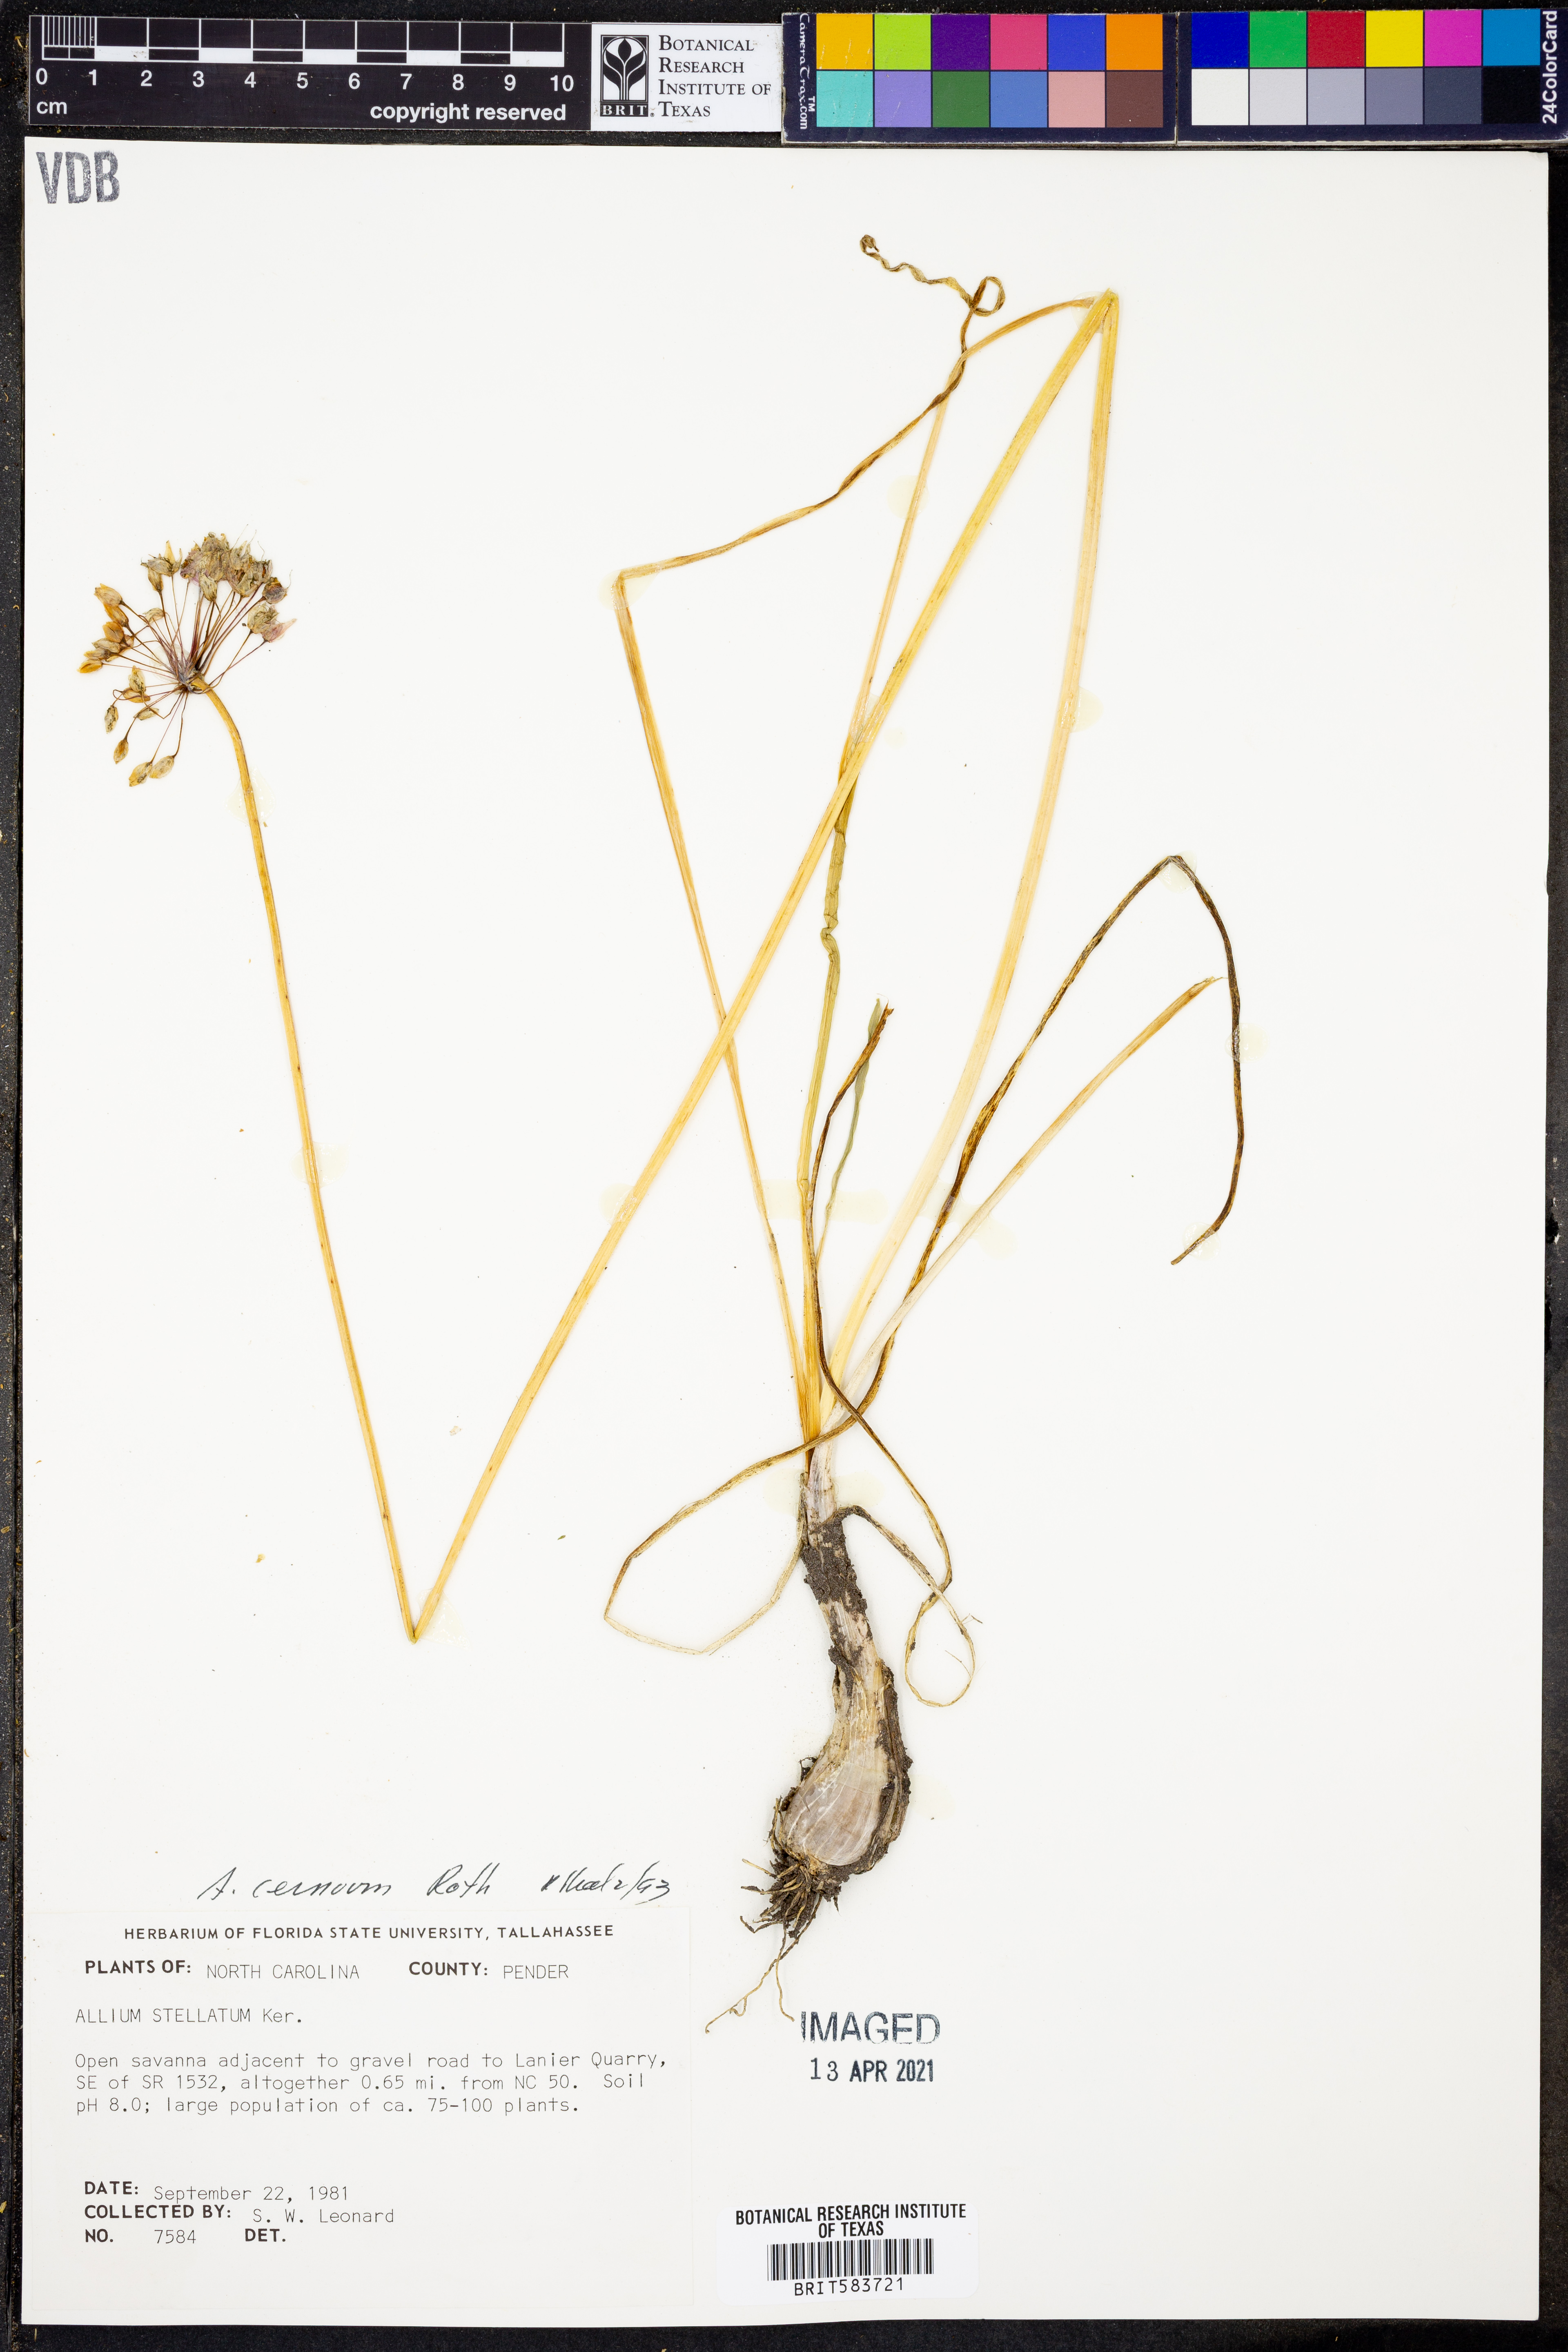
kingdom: Plantae
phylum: Tracheophyta
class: Liliopsida
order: Asparagales
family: Amaryllidaceae
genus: Allium
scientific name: Allium cernuum
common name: Nodding onion
